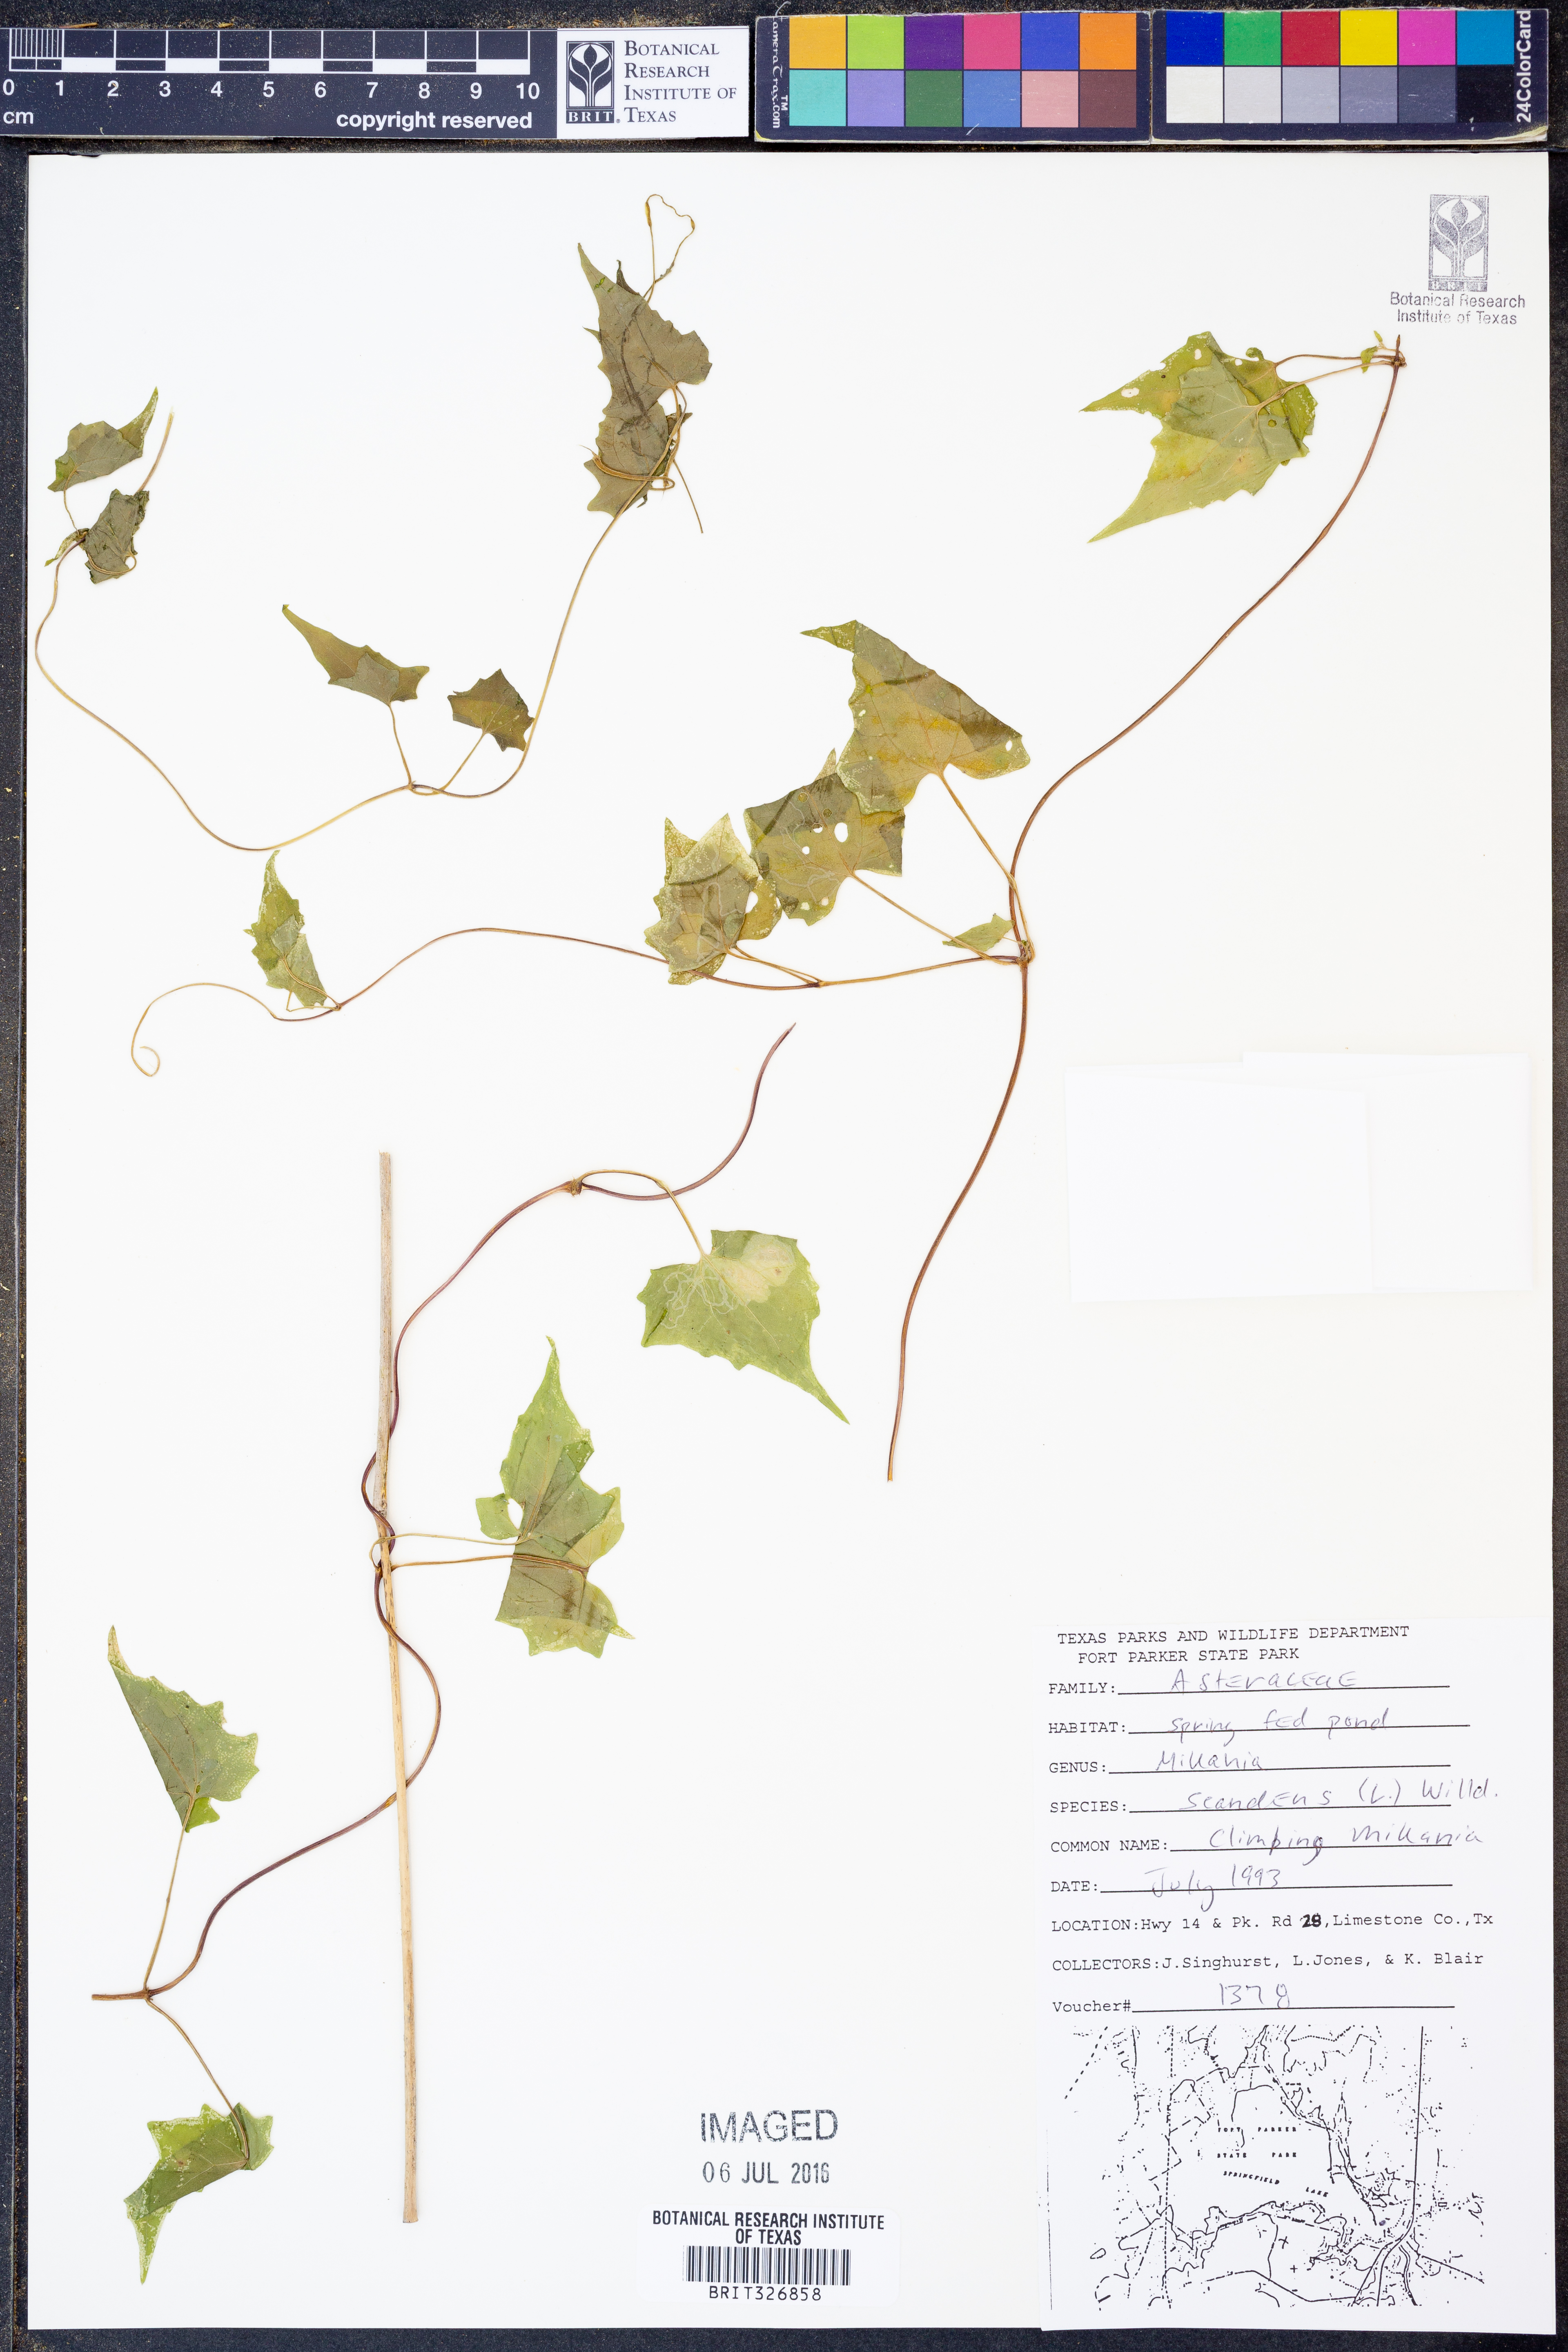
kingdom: Plantae
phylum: Tracheophyta
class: Magnoliopsida
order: Asterales
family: Asteraceae
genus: Mikania
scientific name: Mikania scandens
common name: Climbing hempvine
